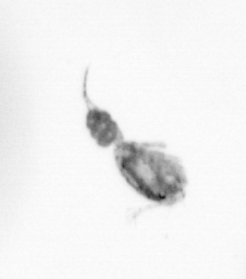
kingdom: Animalia
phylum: Arthropoda
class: Copepoda
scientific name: Copepoda
